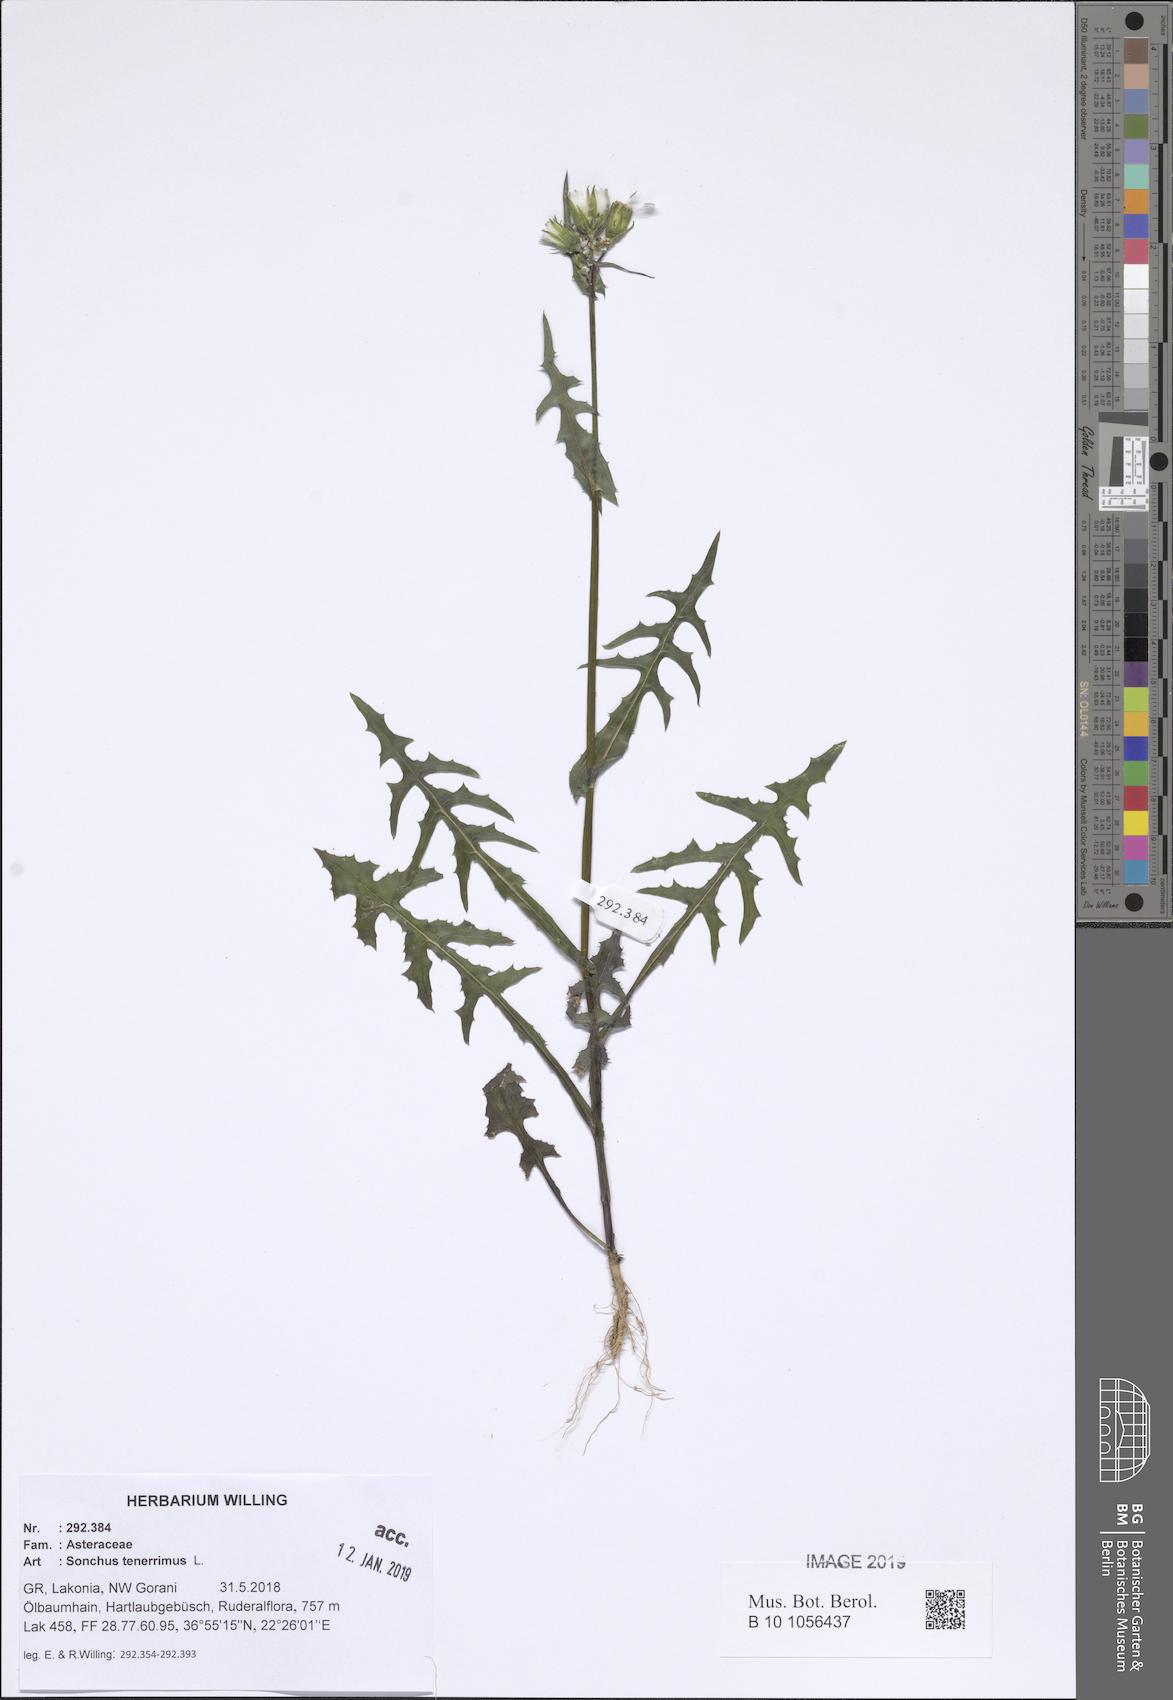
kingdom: Plantae
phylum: Tracheophyta
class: Magnoliopsida
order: Asterales
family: Asteraceae
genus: Sonchus
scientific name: Sonchus tenerrimus
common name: Clammy sowthistle
